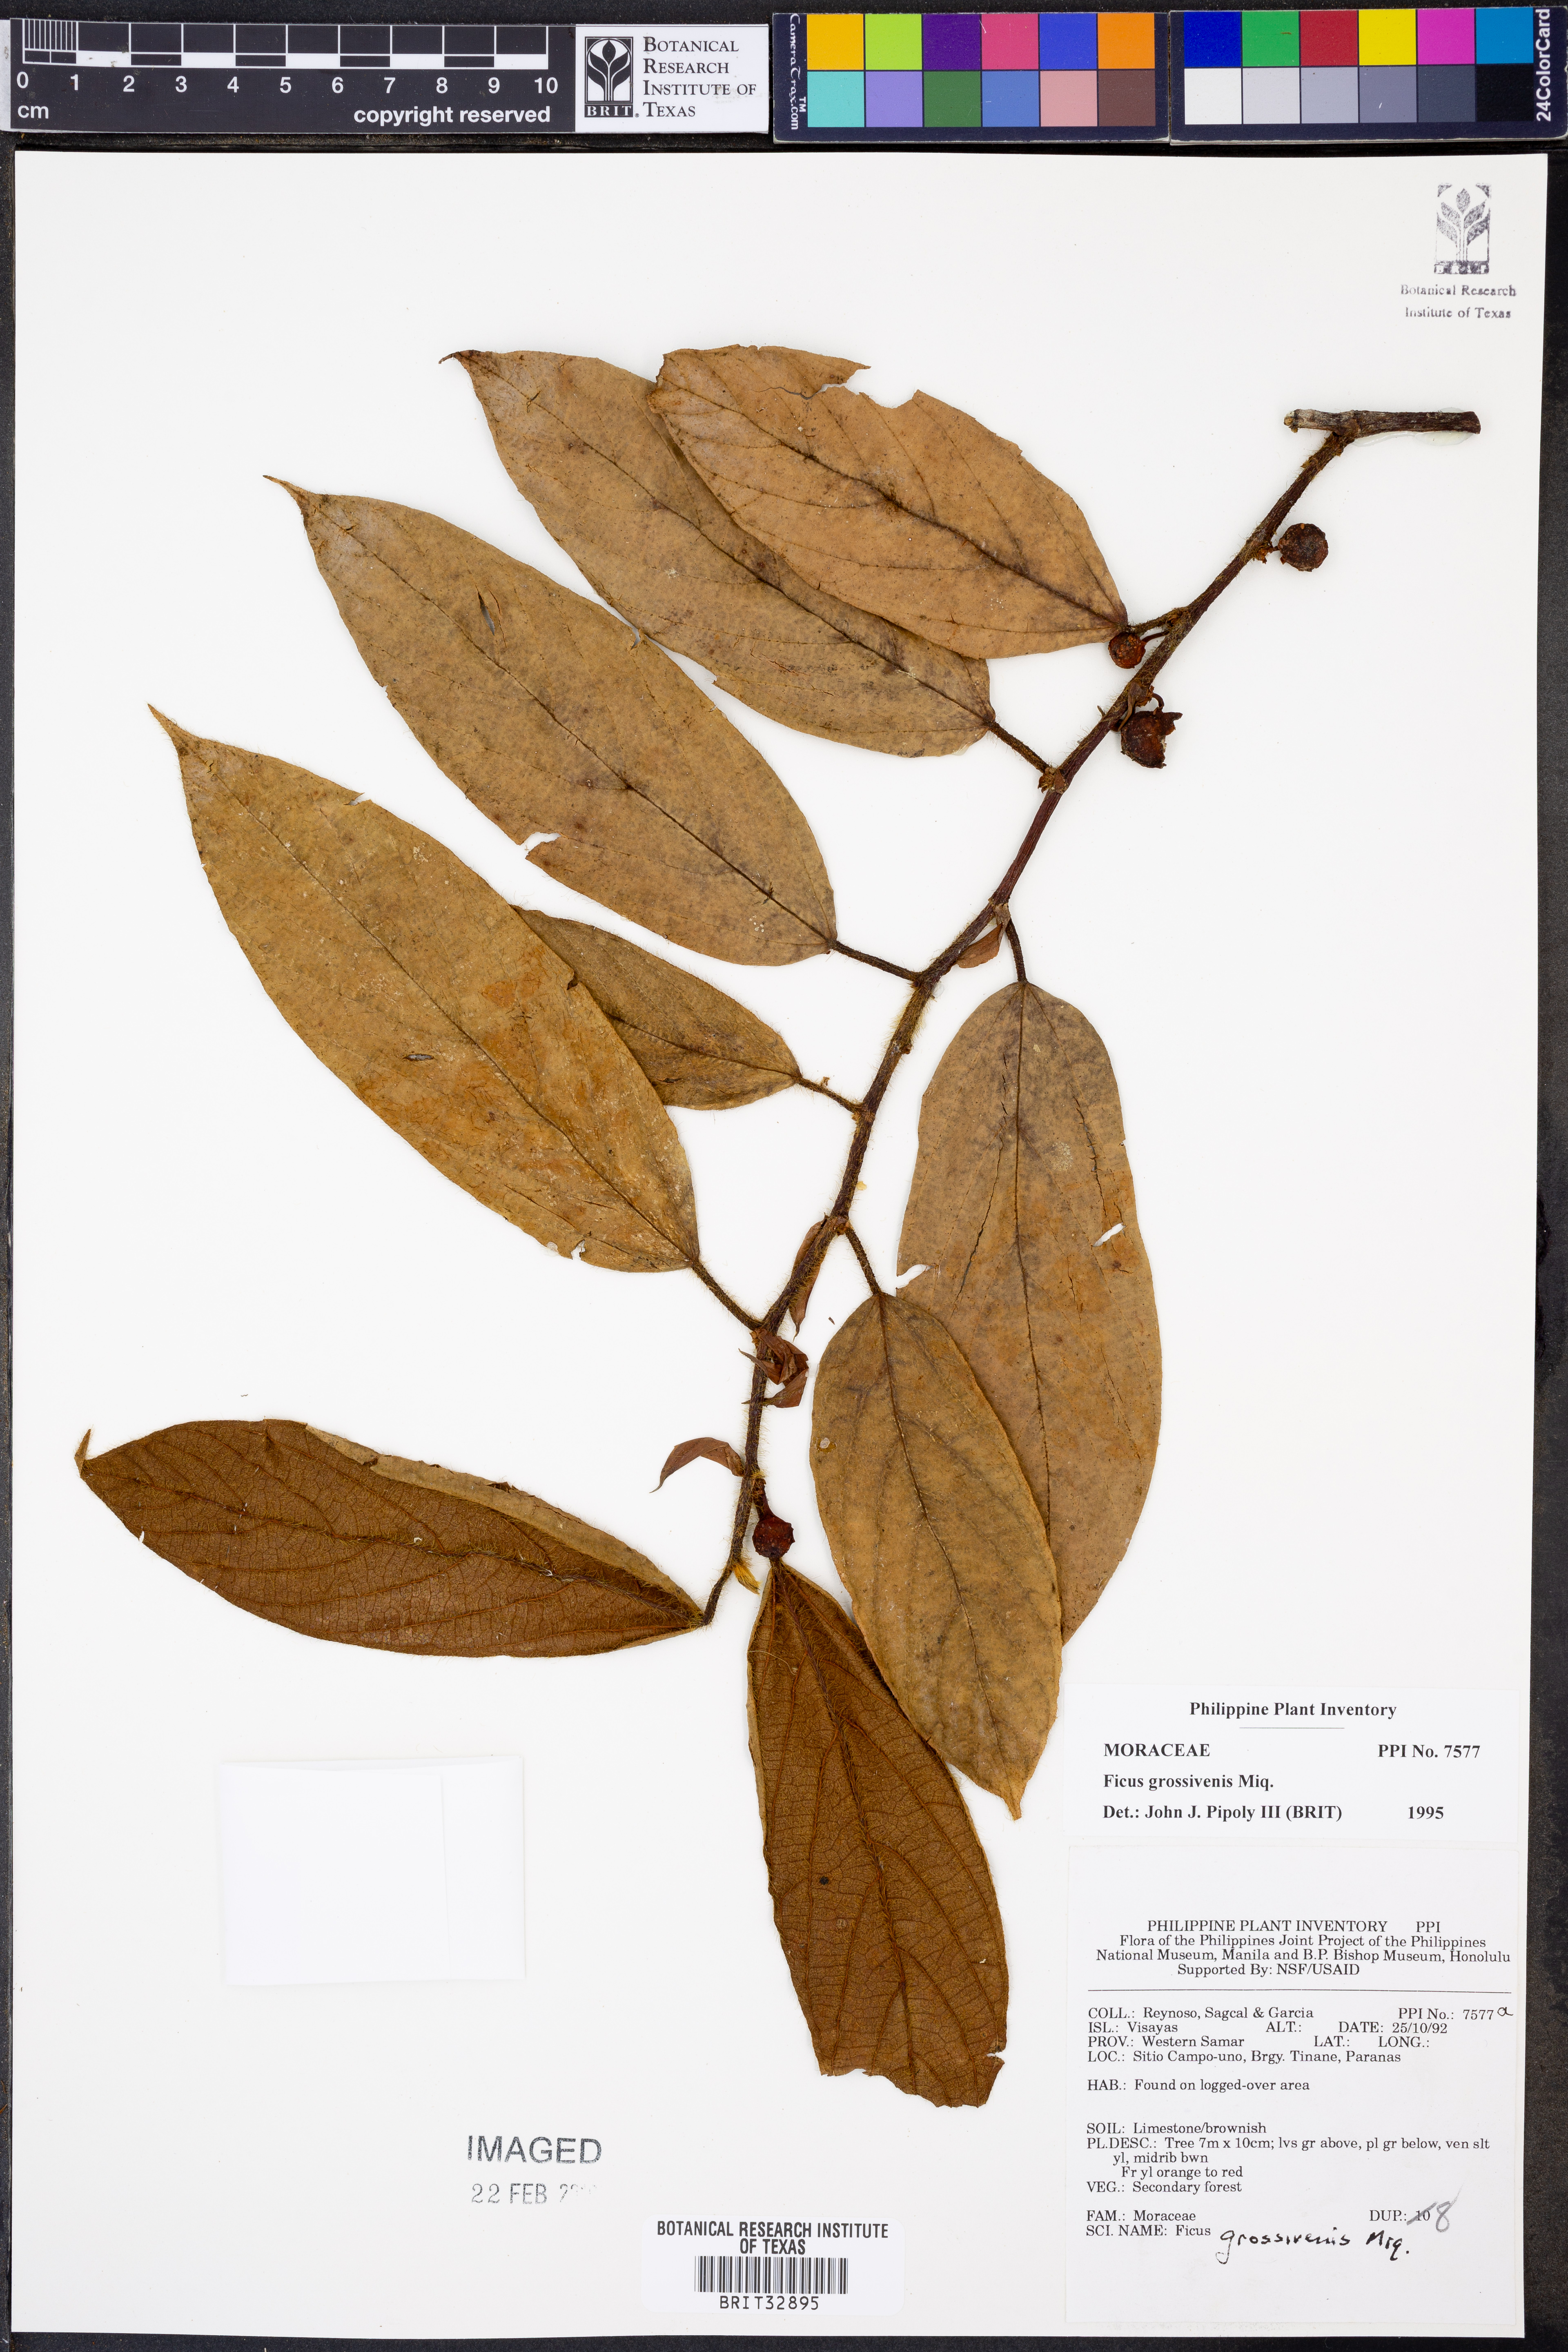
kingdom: Plantae
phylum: Tracheophyta
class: Magnoliopsida
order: Rosales
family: Moraceae
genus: Ficus
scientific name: Ficus villosa
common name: Villous fig
